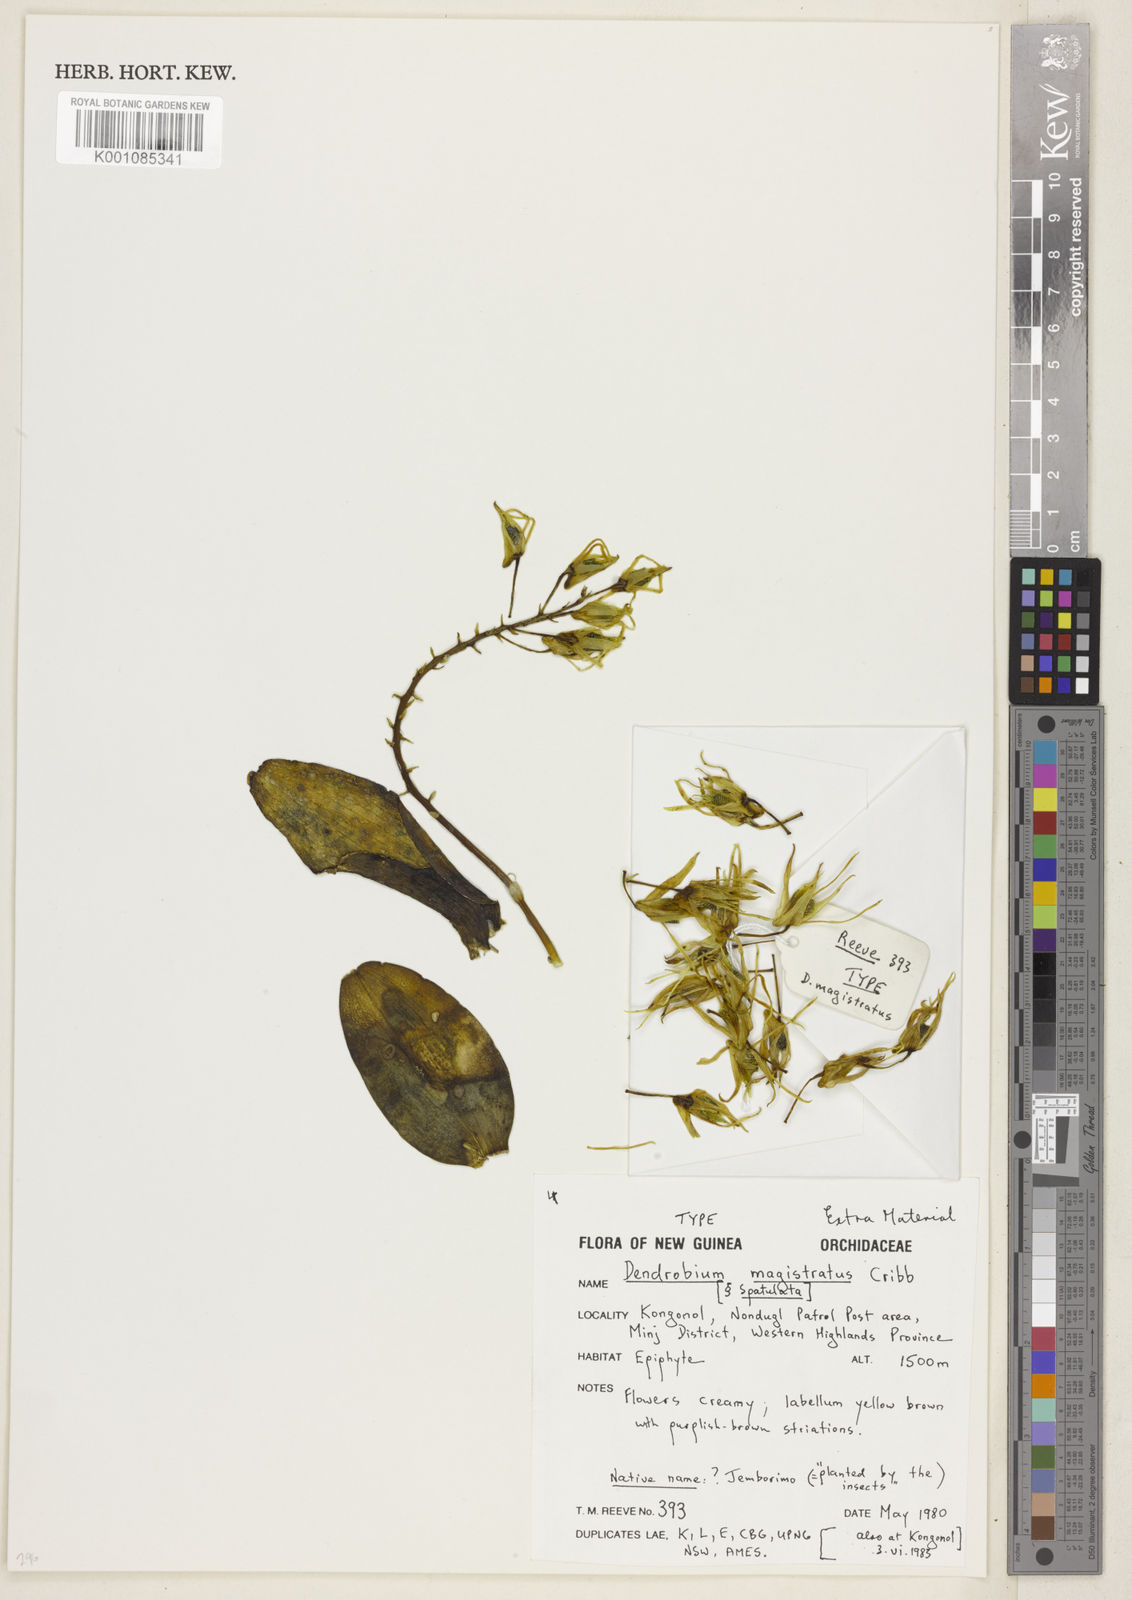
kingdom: Plantae
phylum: Tracheophyta
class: Liliopsida
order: Asparagales
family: Orchidaceae
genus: Dendrobium
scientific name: Dendrobium
